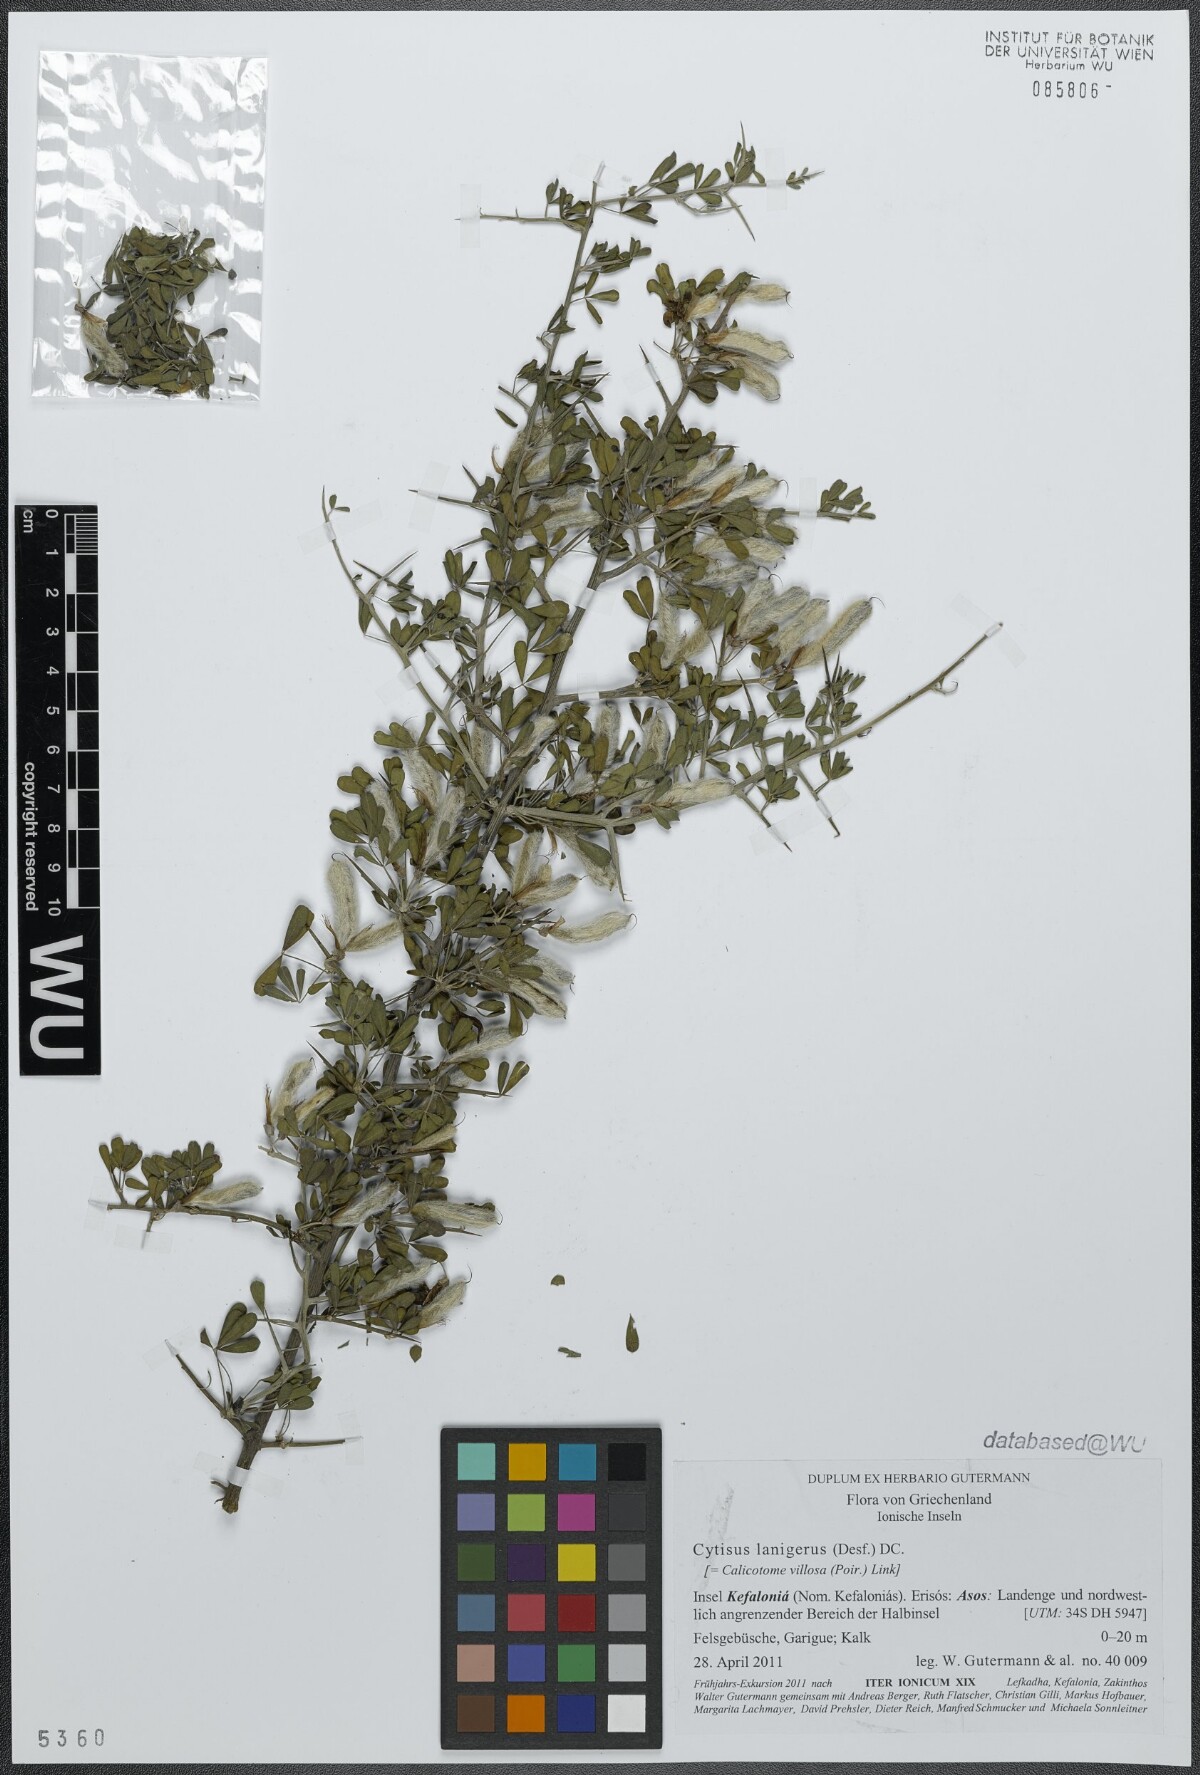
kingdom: Plantae
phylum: Tracheophyta
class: Magnoliopsida
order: Fabales
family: Fabaceae
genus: Calicotome
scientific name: Calicotome villosa
